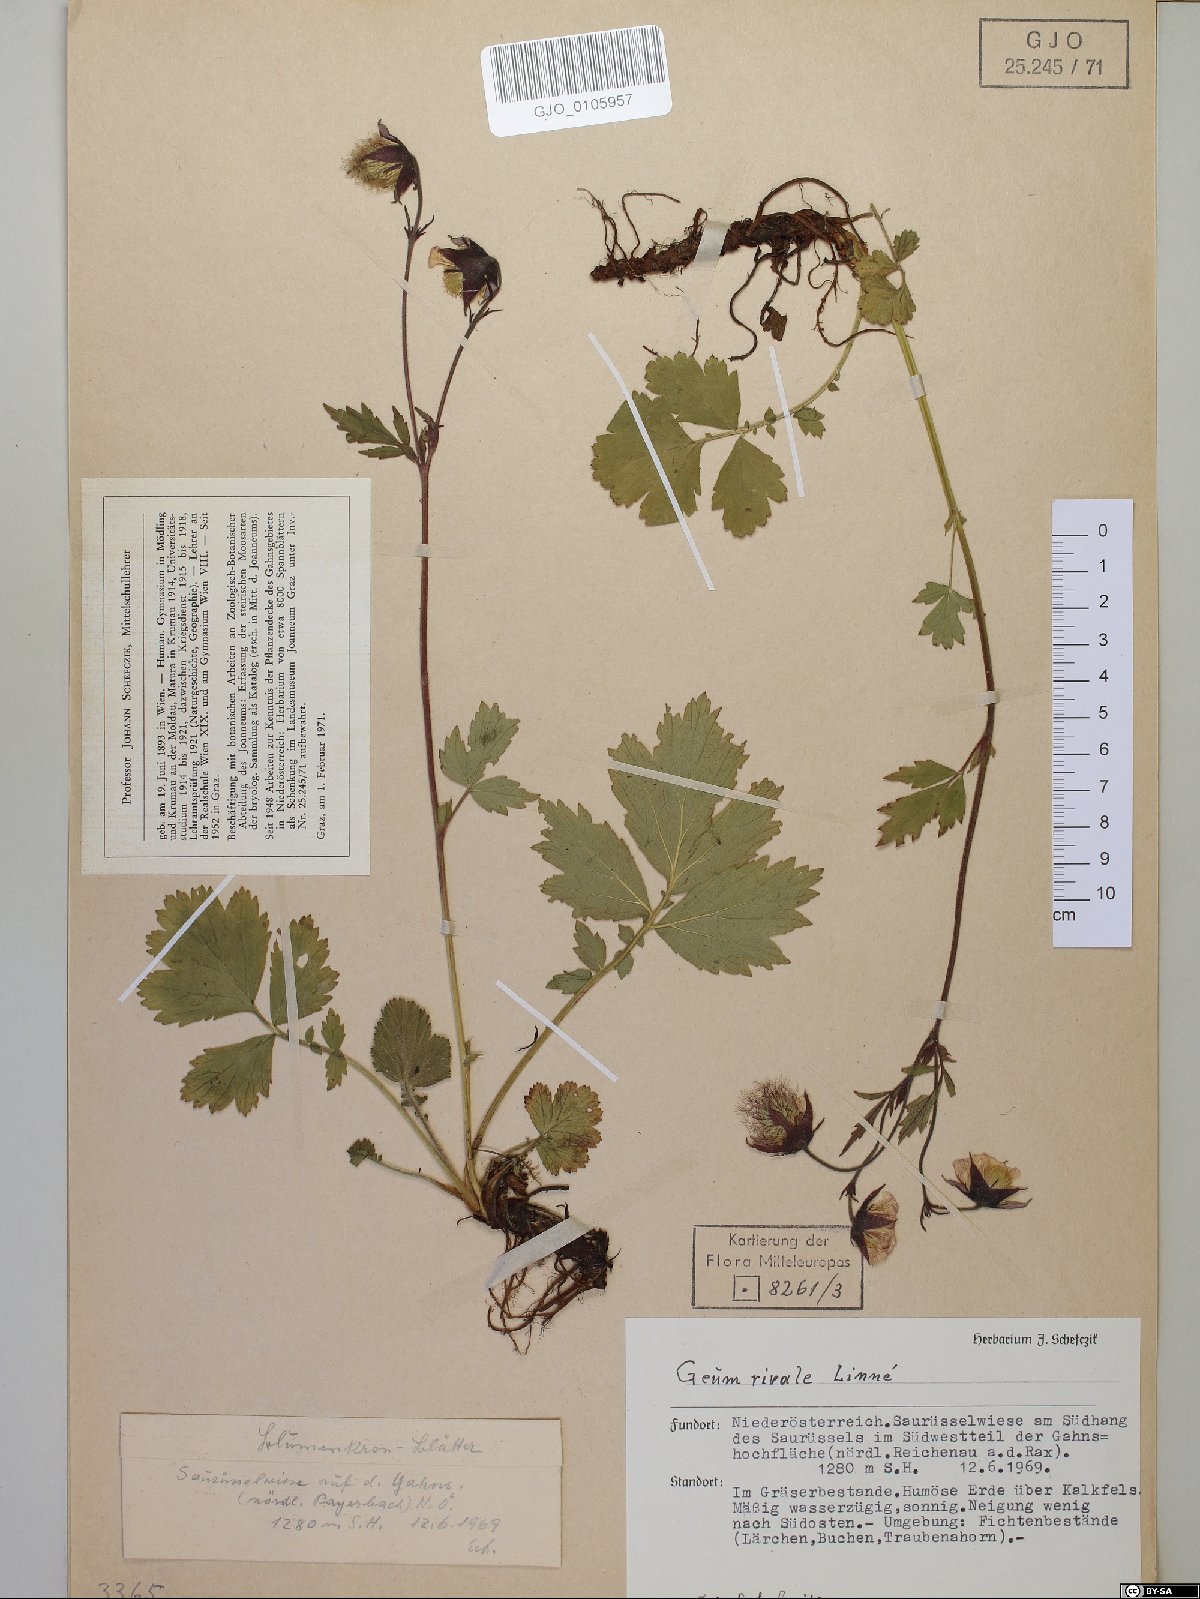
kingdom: Plantae
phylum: Tracheophyta
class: Magnoliopsida
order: Rosales
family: Rosaceae
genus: Geum
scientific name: Geum rivale
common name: Water avens
